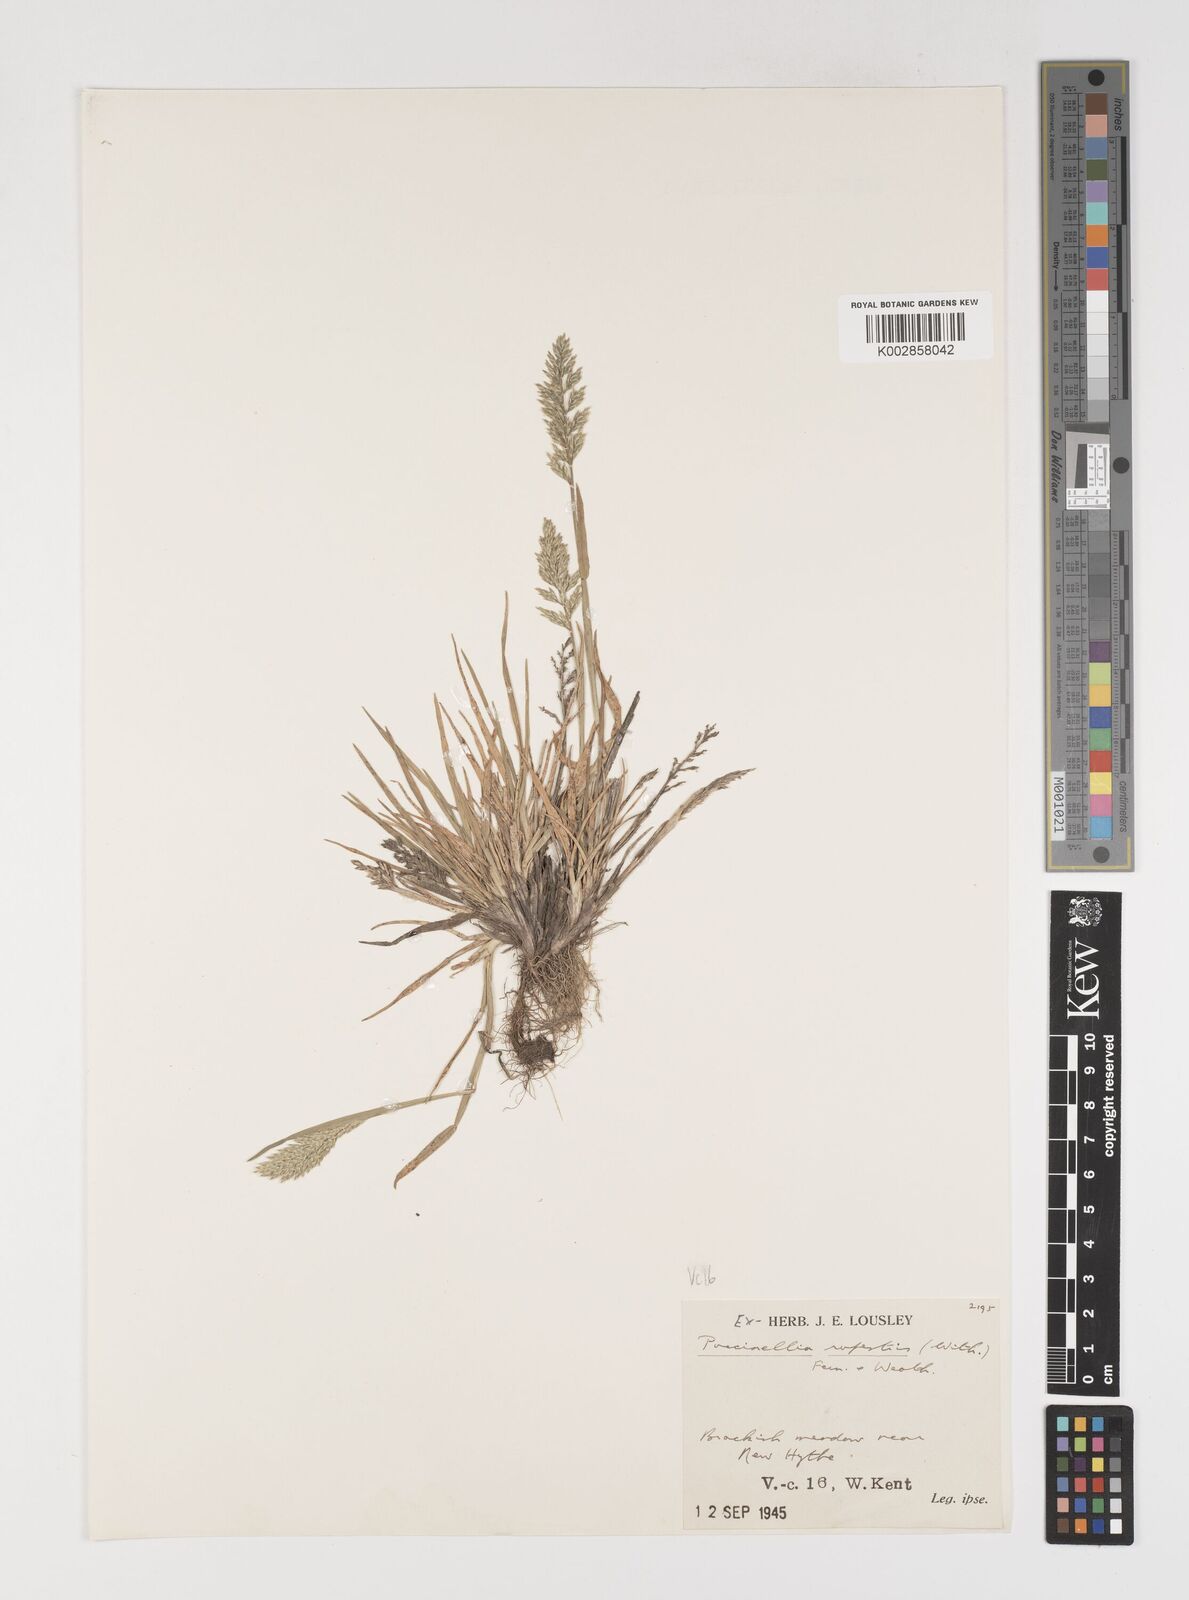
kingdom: Plantae
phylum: Tracheophyta
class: Liliopsida
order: Poales
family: Poaceae
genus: Puccinellia
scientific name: Puccinellia rupestris
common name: Stiff saltmarsh-grass
